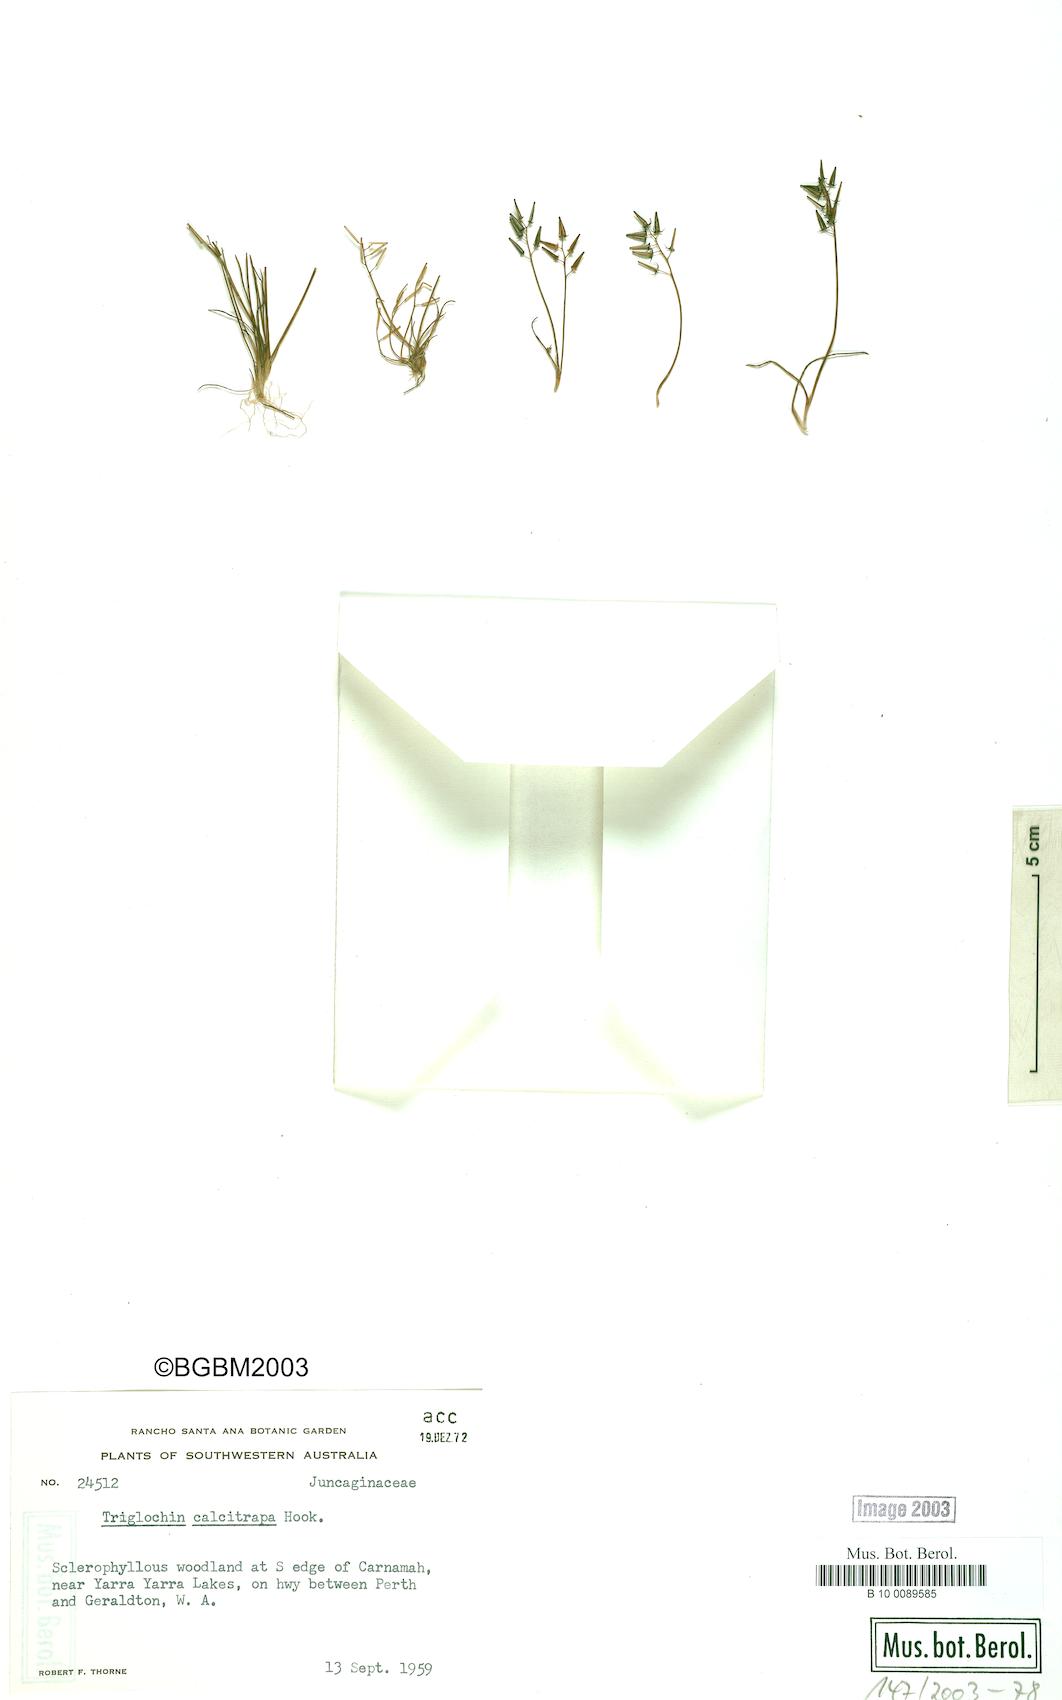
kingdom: Plantae
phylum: Tracheophyta
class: Liliopsida
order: Alismatales
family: Juncaginaceae
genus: Triglochin
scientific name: Triglochin calcitrapa
